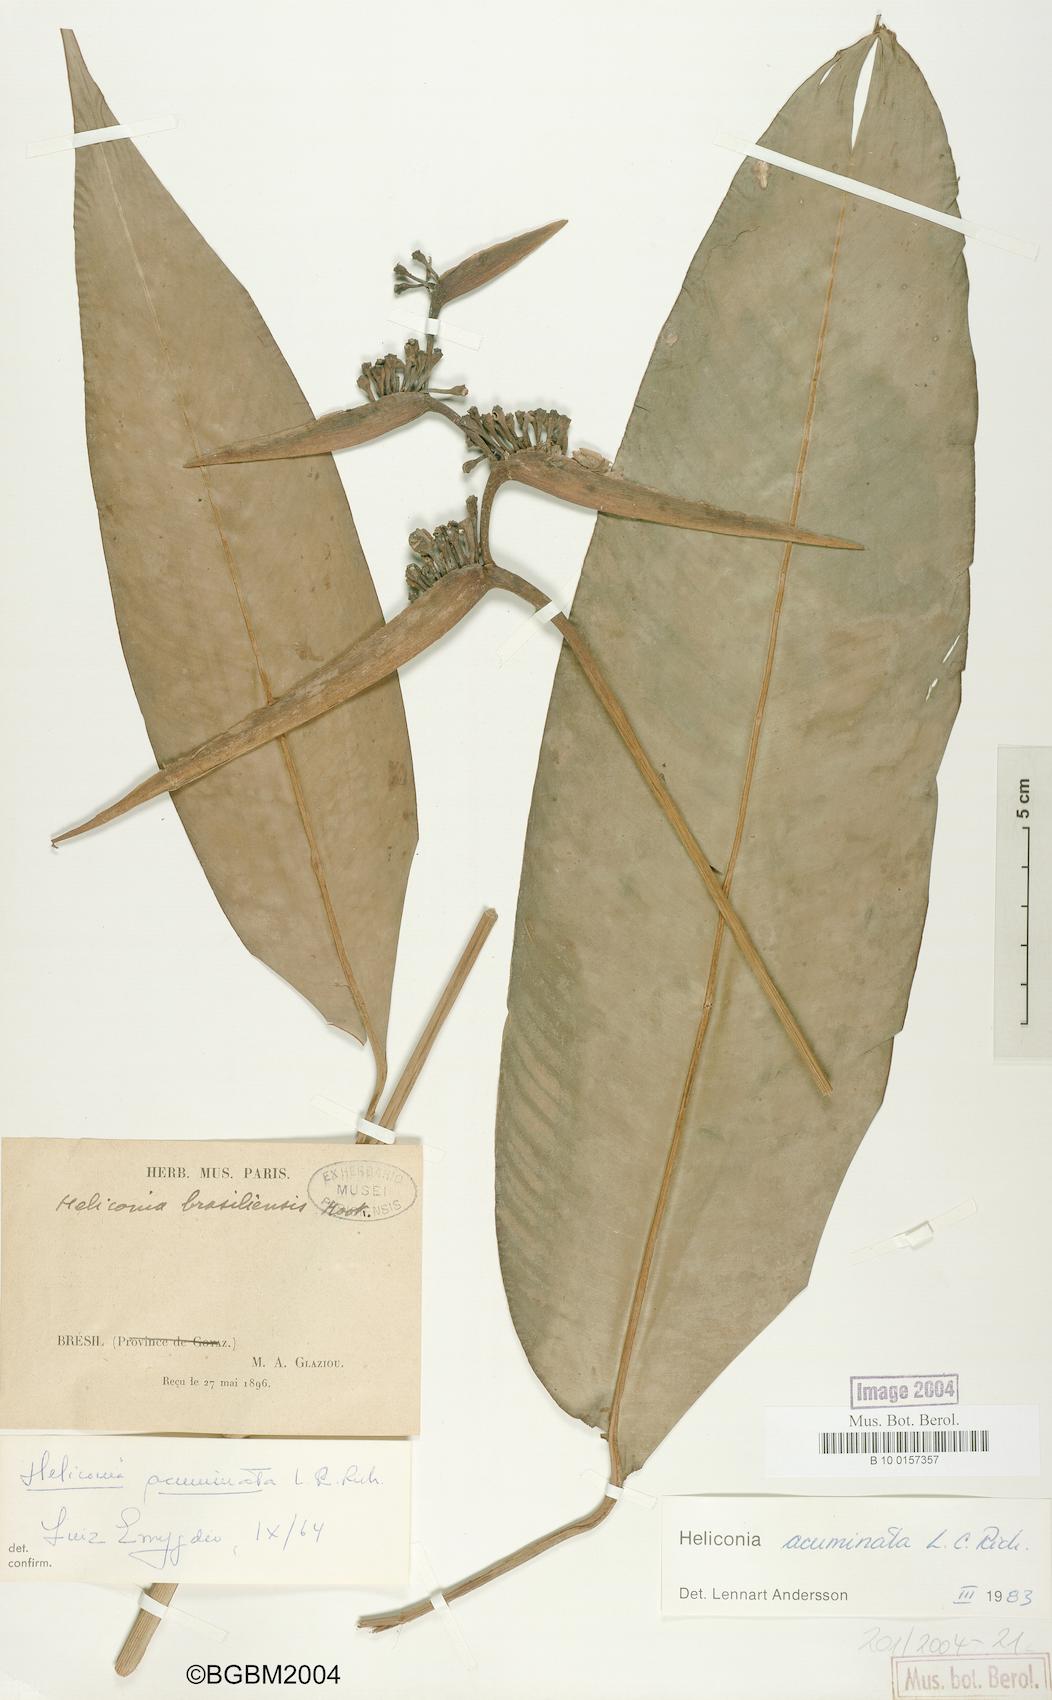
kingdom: Plantae
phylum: Tracheophyta
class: Liliopsida
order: Zingiberales
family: Heliconiaceae
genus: Heliconia
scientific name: Heliconia acuminata
